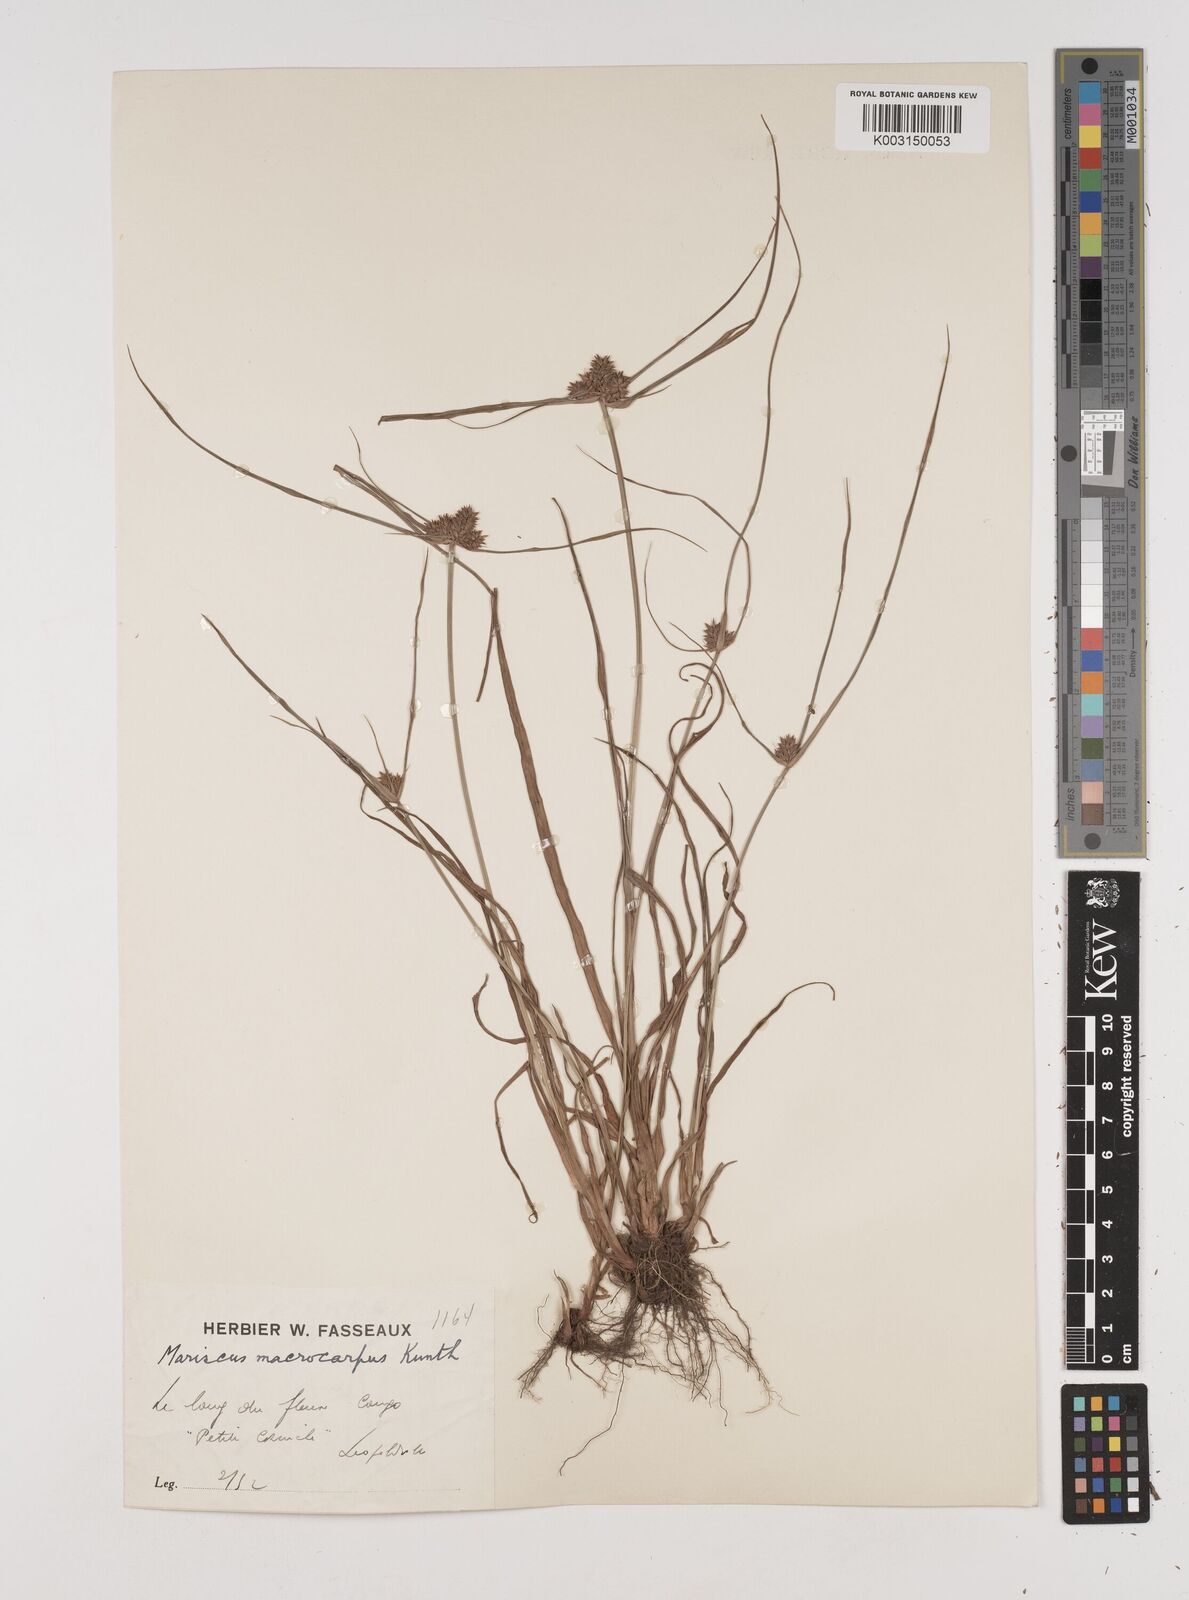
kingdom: Plantae
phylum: Tracheophyta
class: Liliopsida
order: Poales
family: Cyperaceae
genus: Cyperus
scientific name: Cyperus macrocarpus
